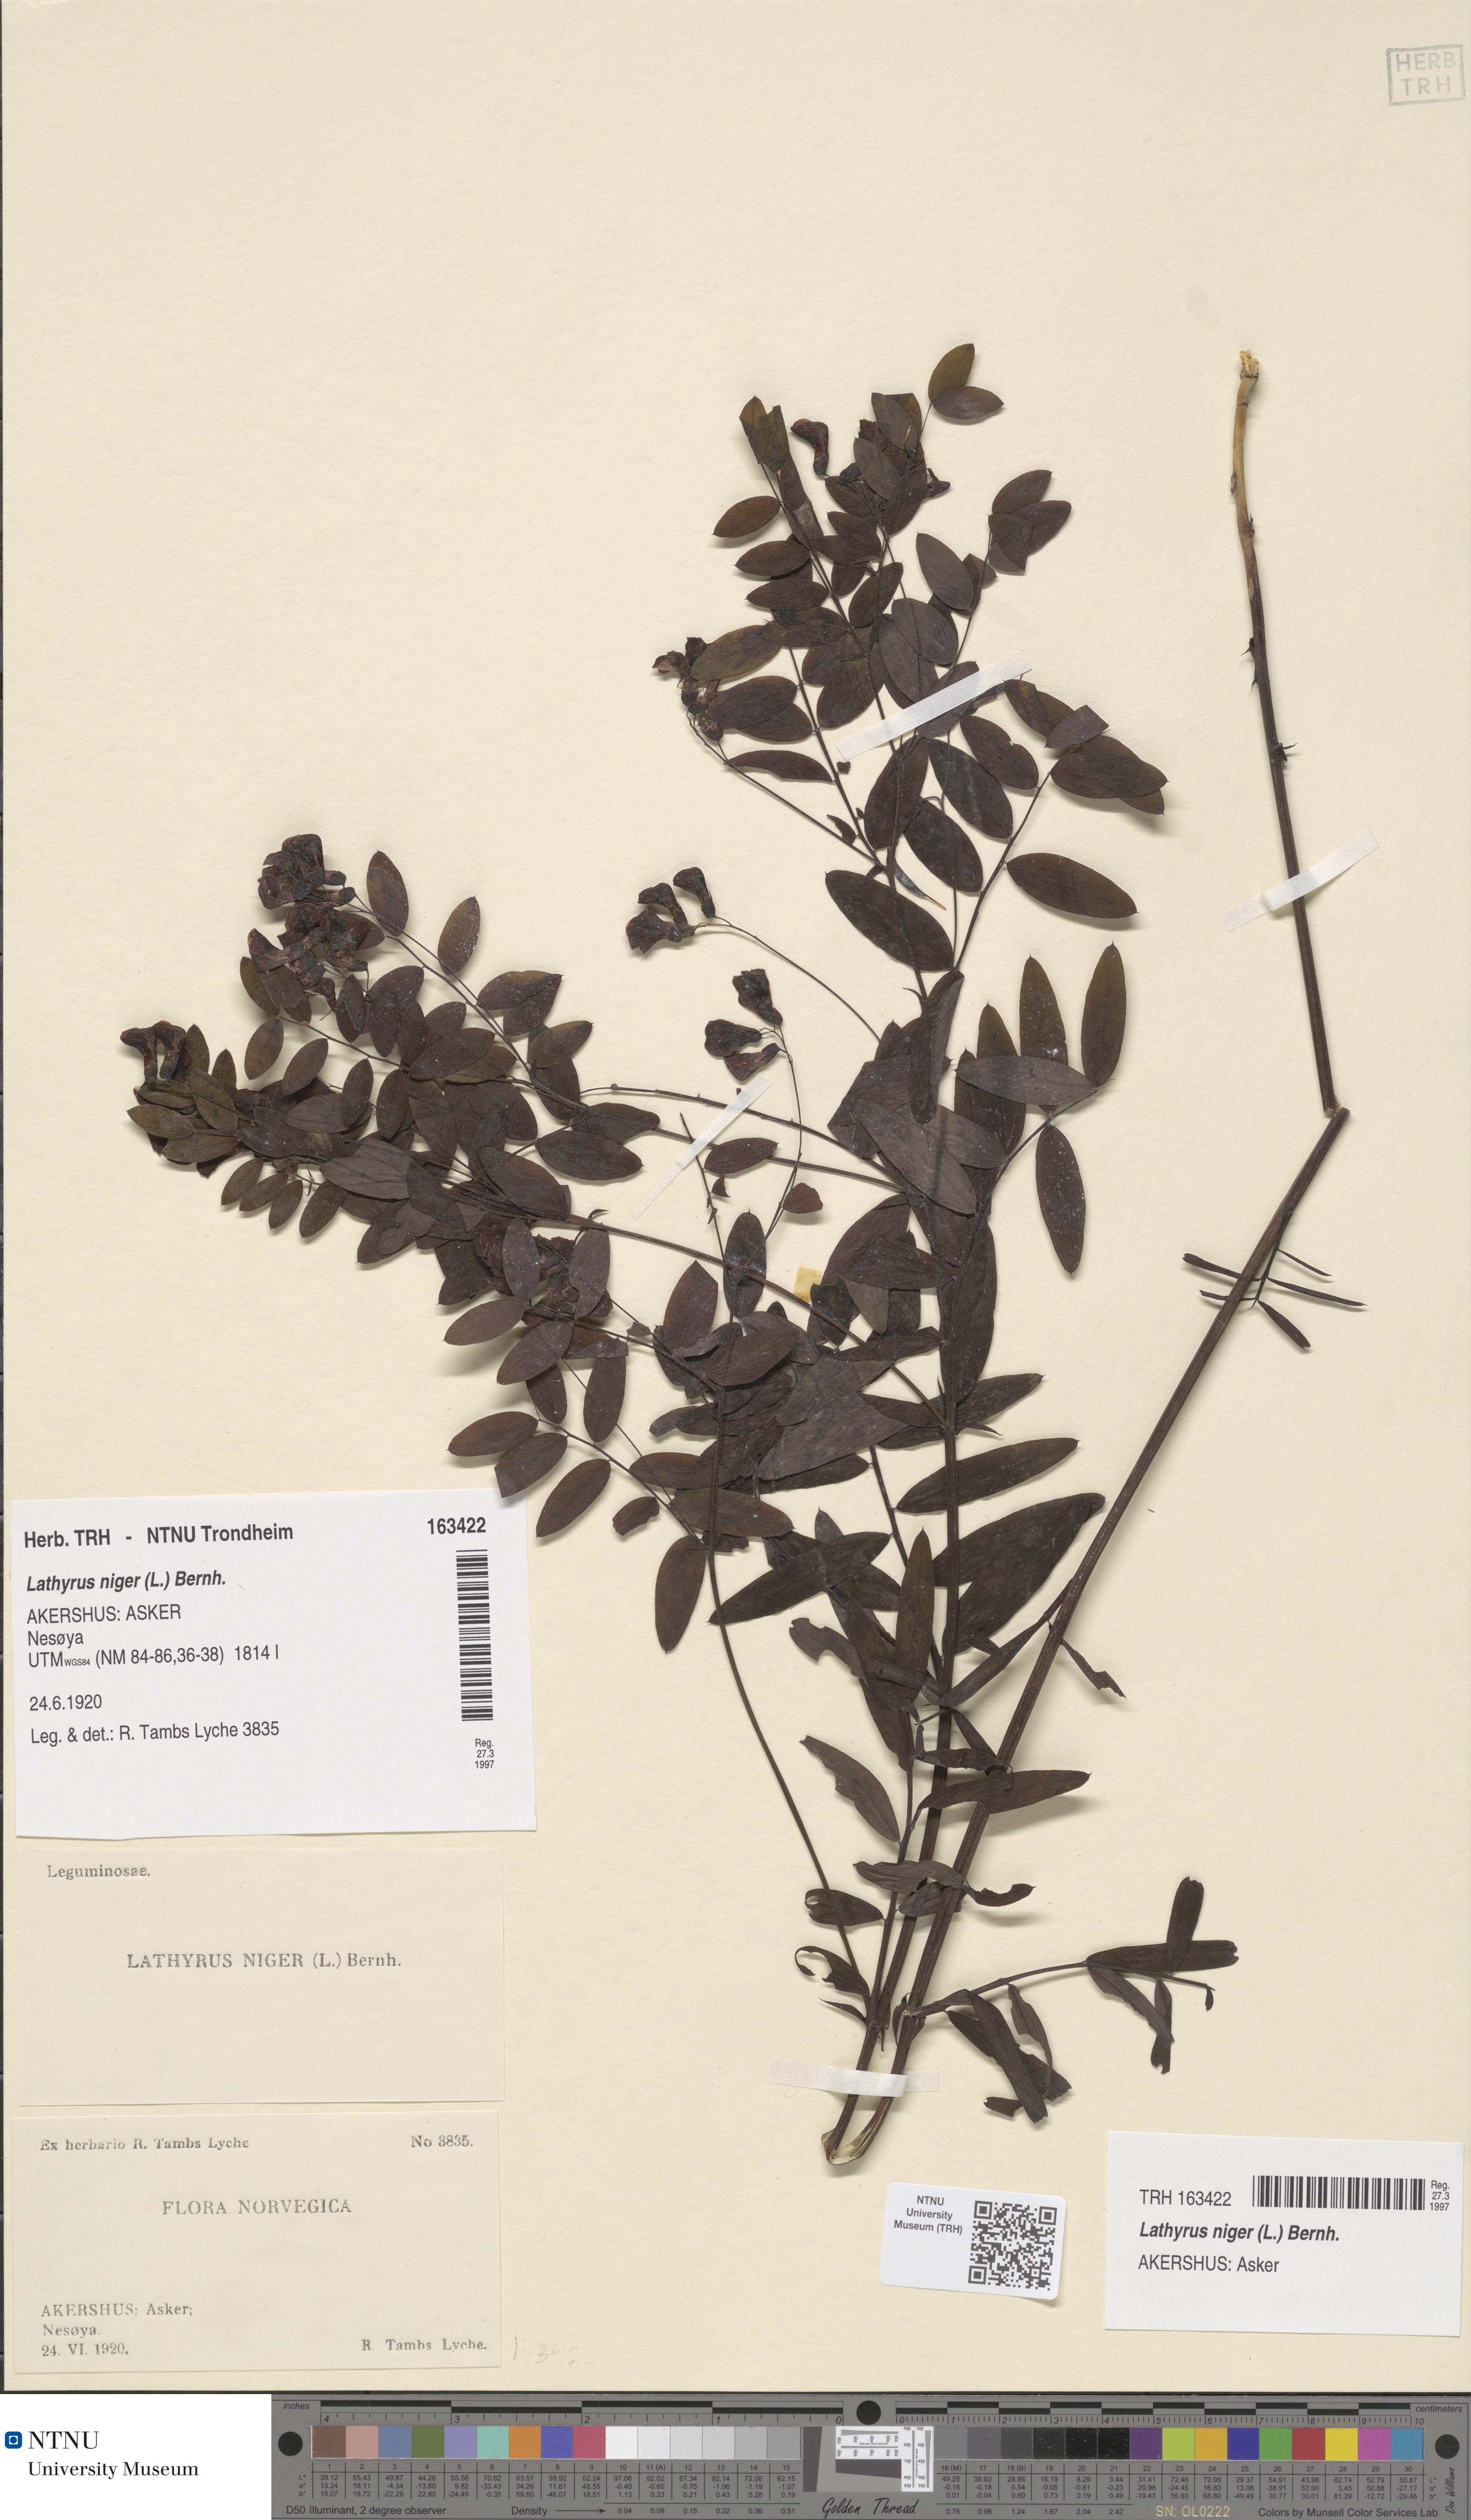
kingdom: Plantae
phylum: Tracheophyta
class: Magnoliopsida
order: Fabales
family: Fabaceae
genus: Lathyrus
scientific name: Lathyrus niger
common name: Black pea
